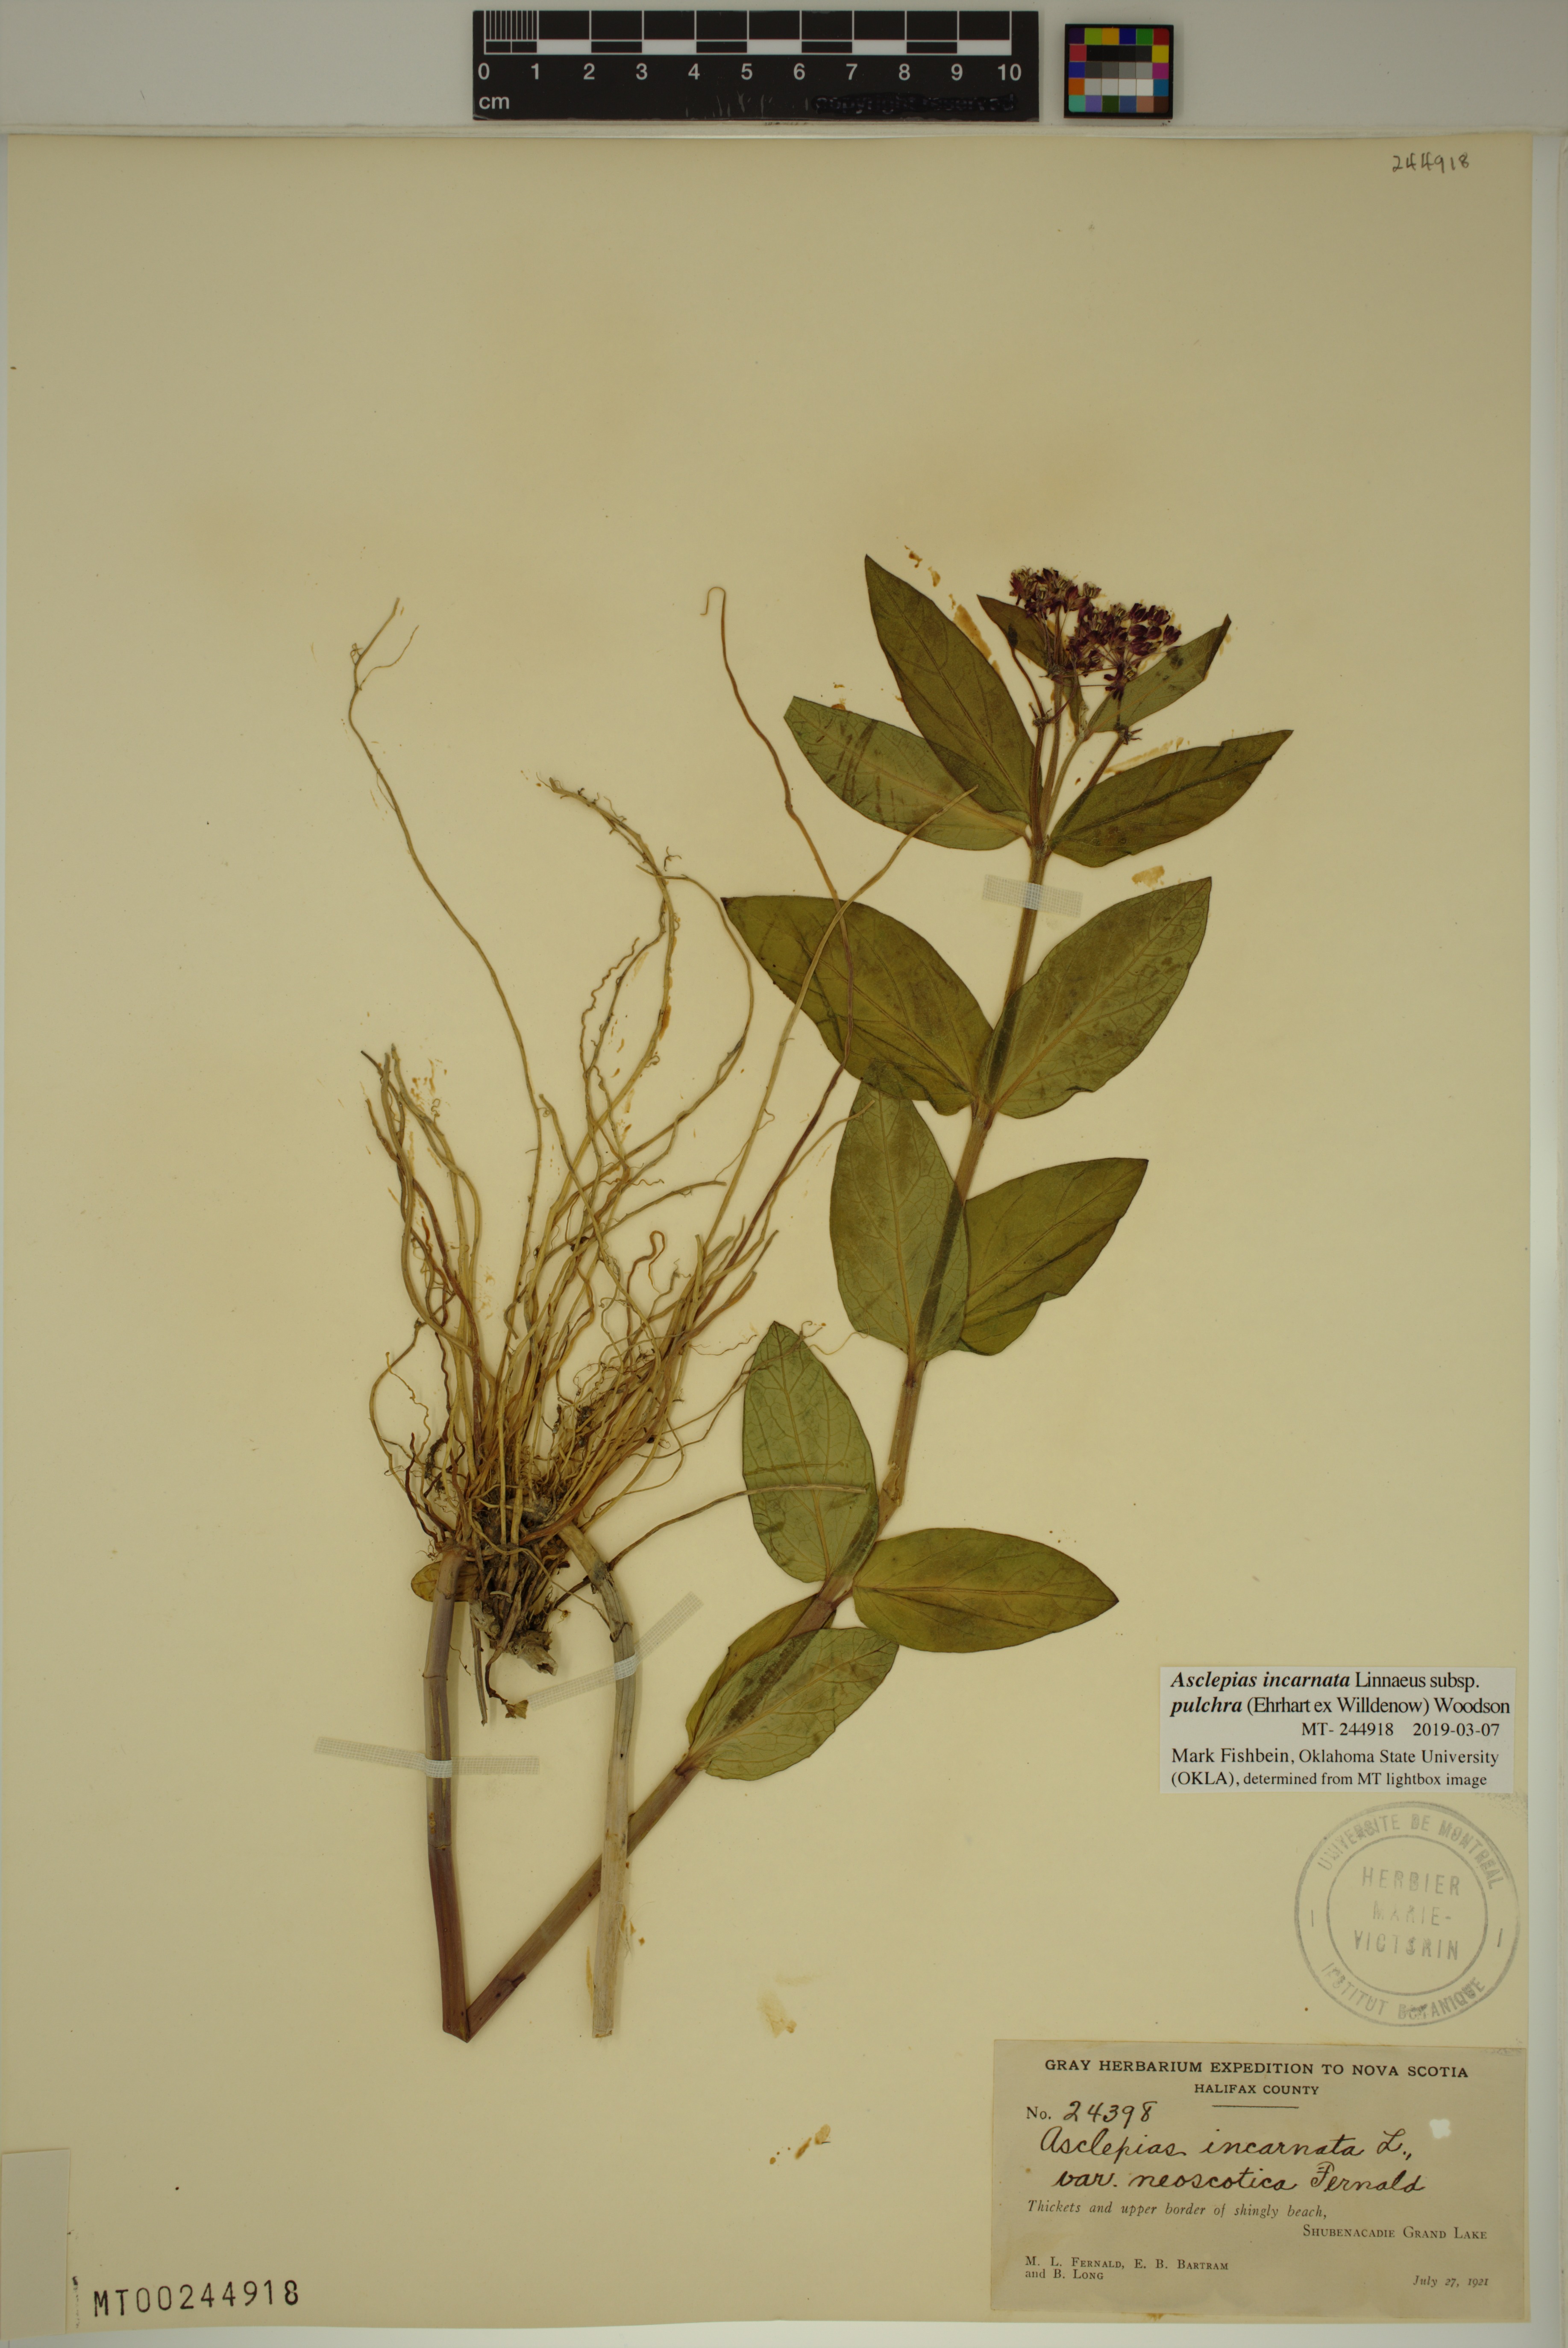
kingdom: Plantae
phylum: Tracheophyta
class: Magnoliopsida
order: Gentianales
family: Apocynaceae
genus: Asclepias
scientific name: Asclepias incarnata
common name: Swamp milkweed
